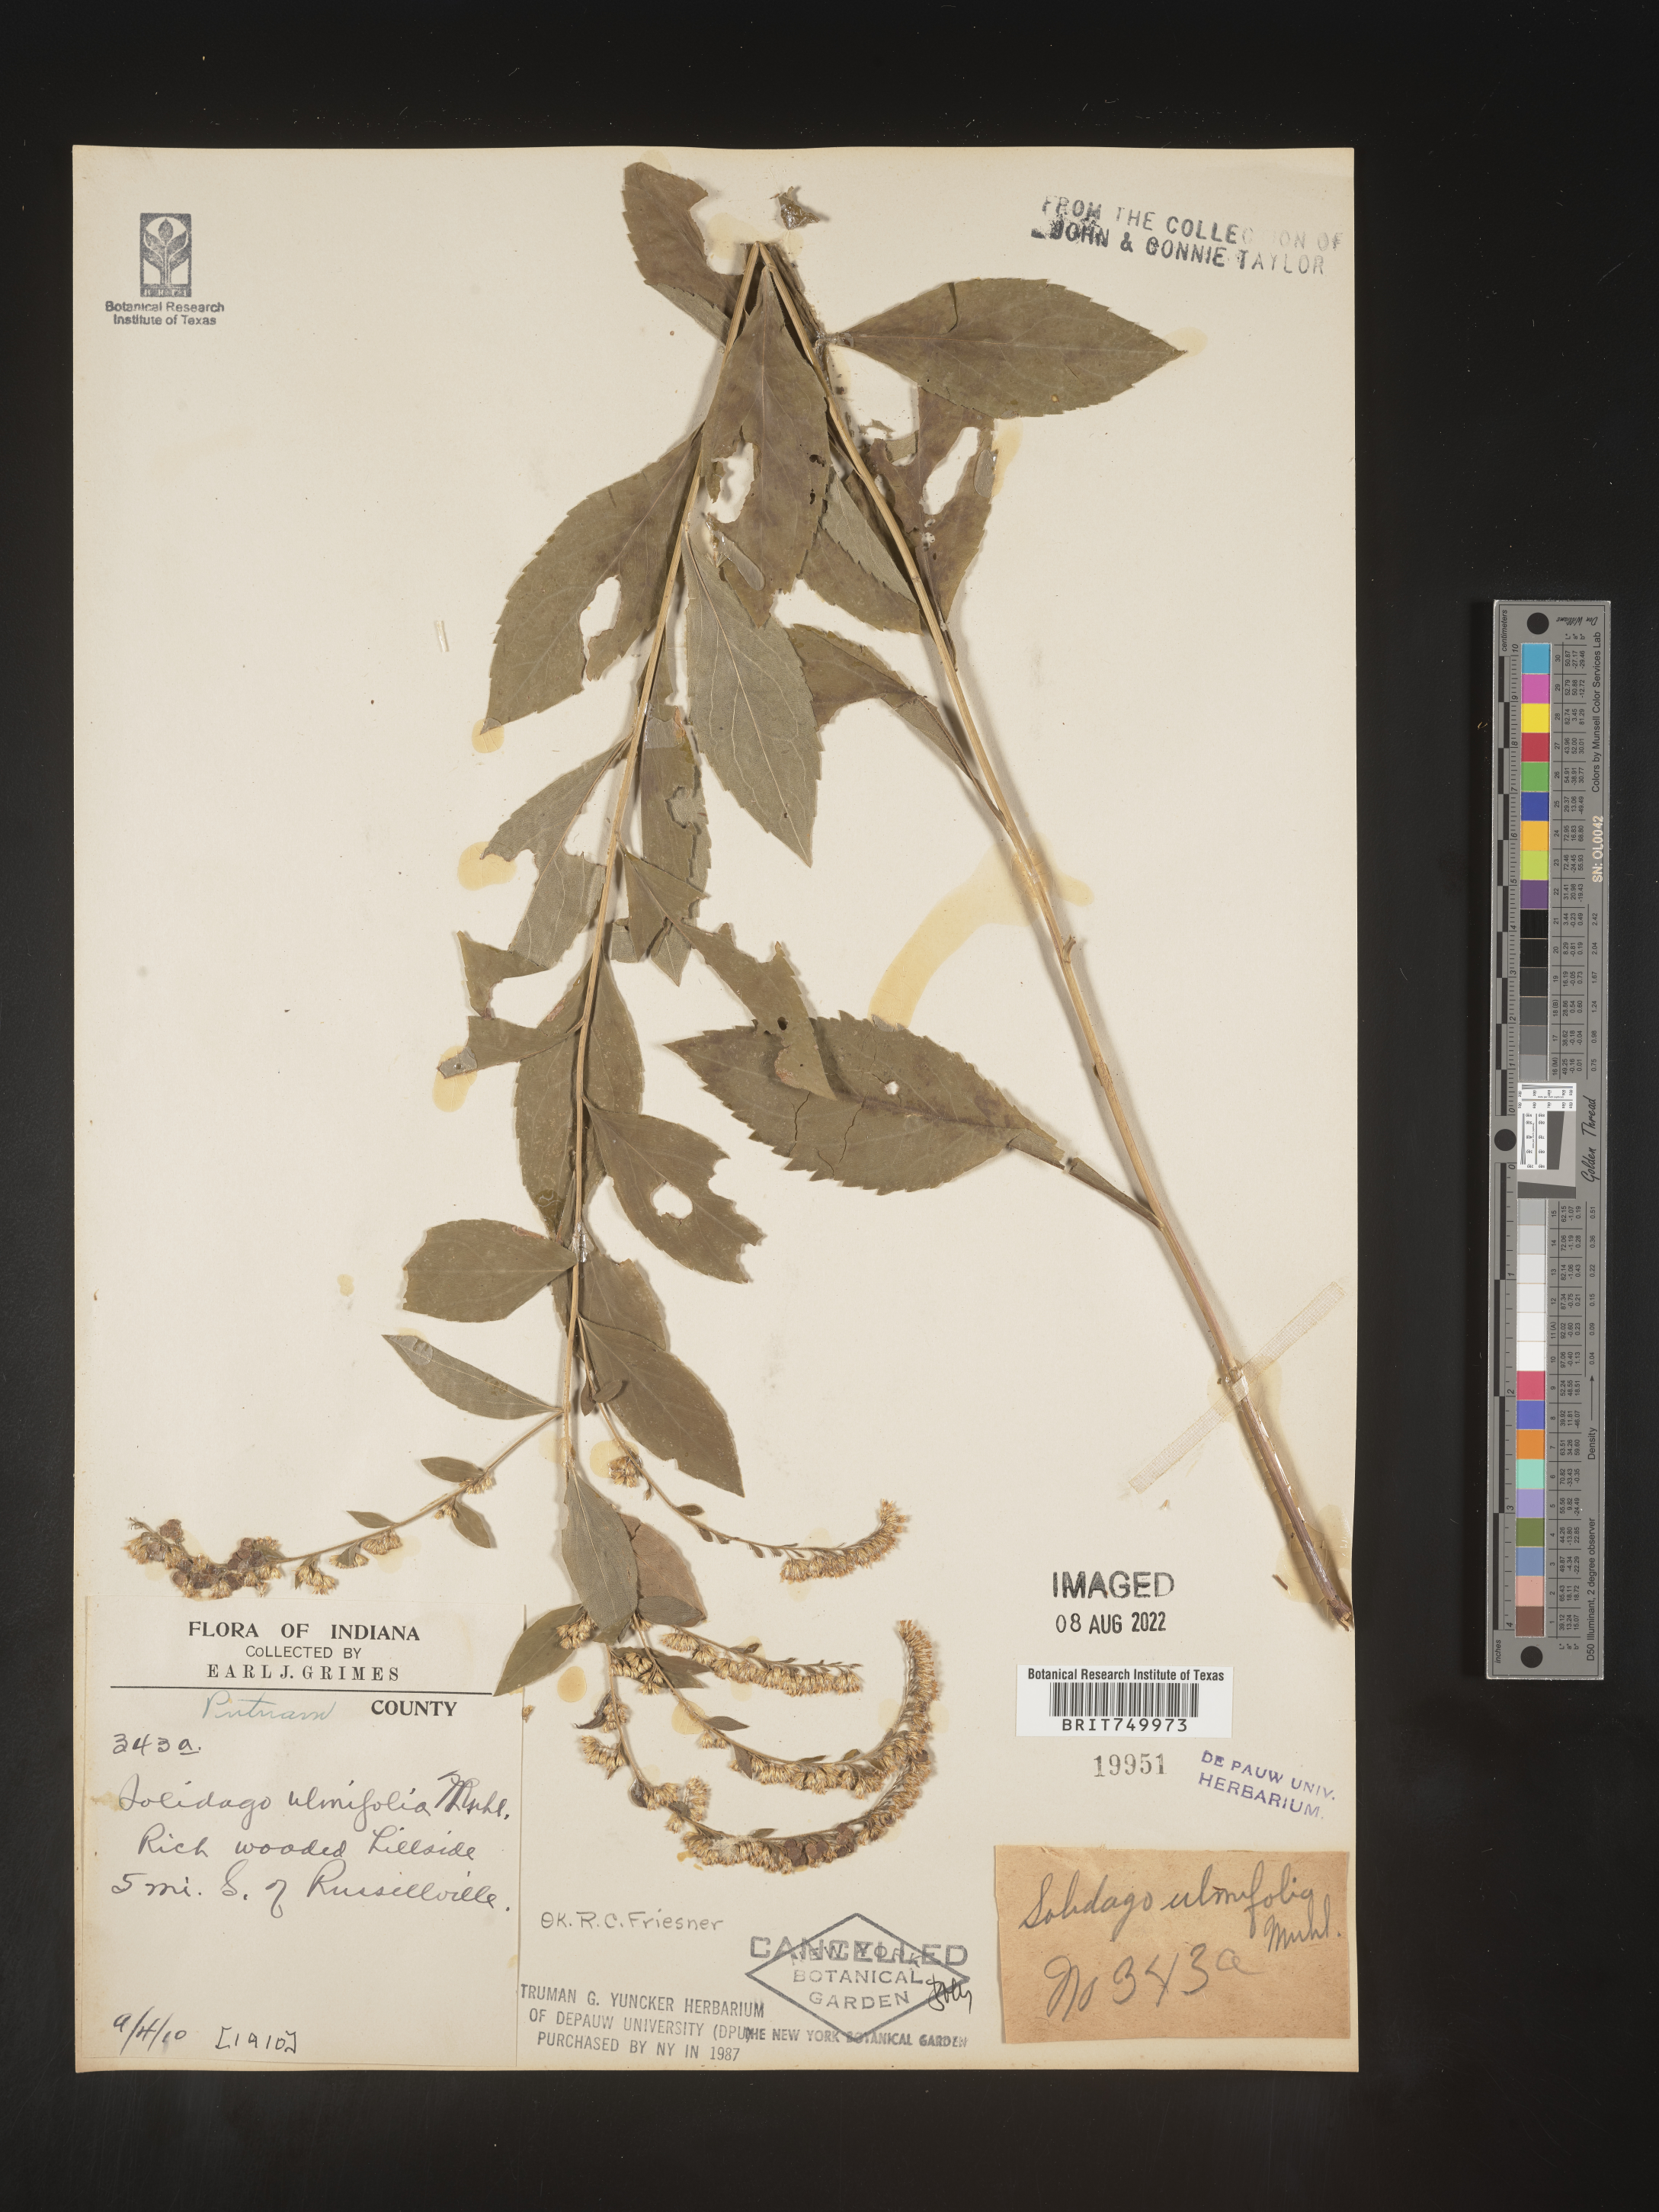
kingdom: Plantae
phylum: Tracheophyta
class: Magnoliopsida
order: Asterales
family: Asteraceae
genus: Solidago
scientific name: Solidago ulmifolia
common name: Elm-leaf goldenrod
